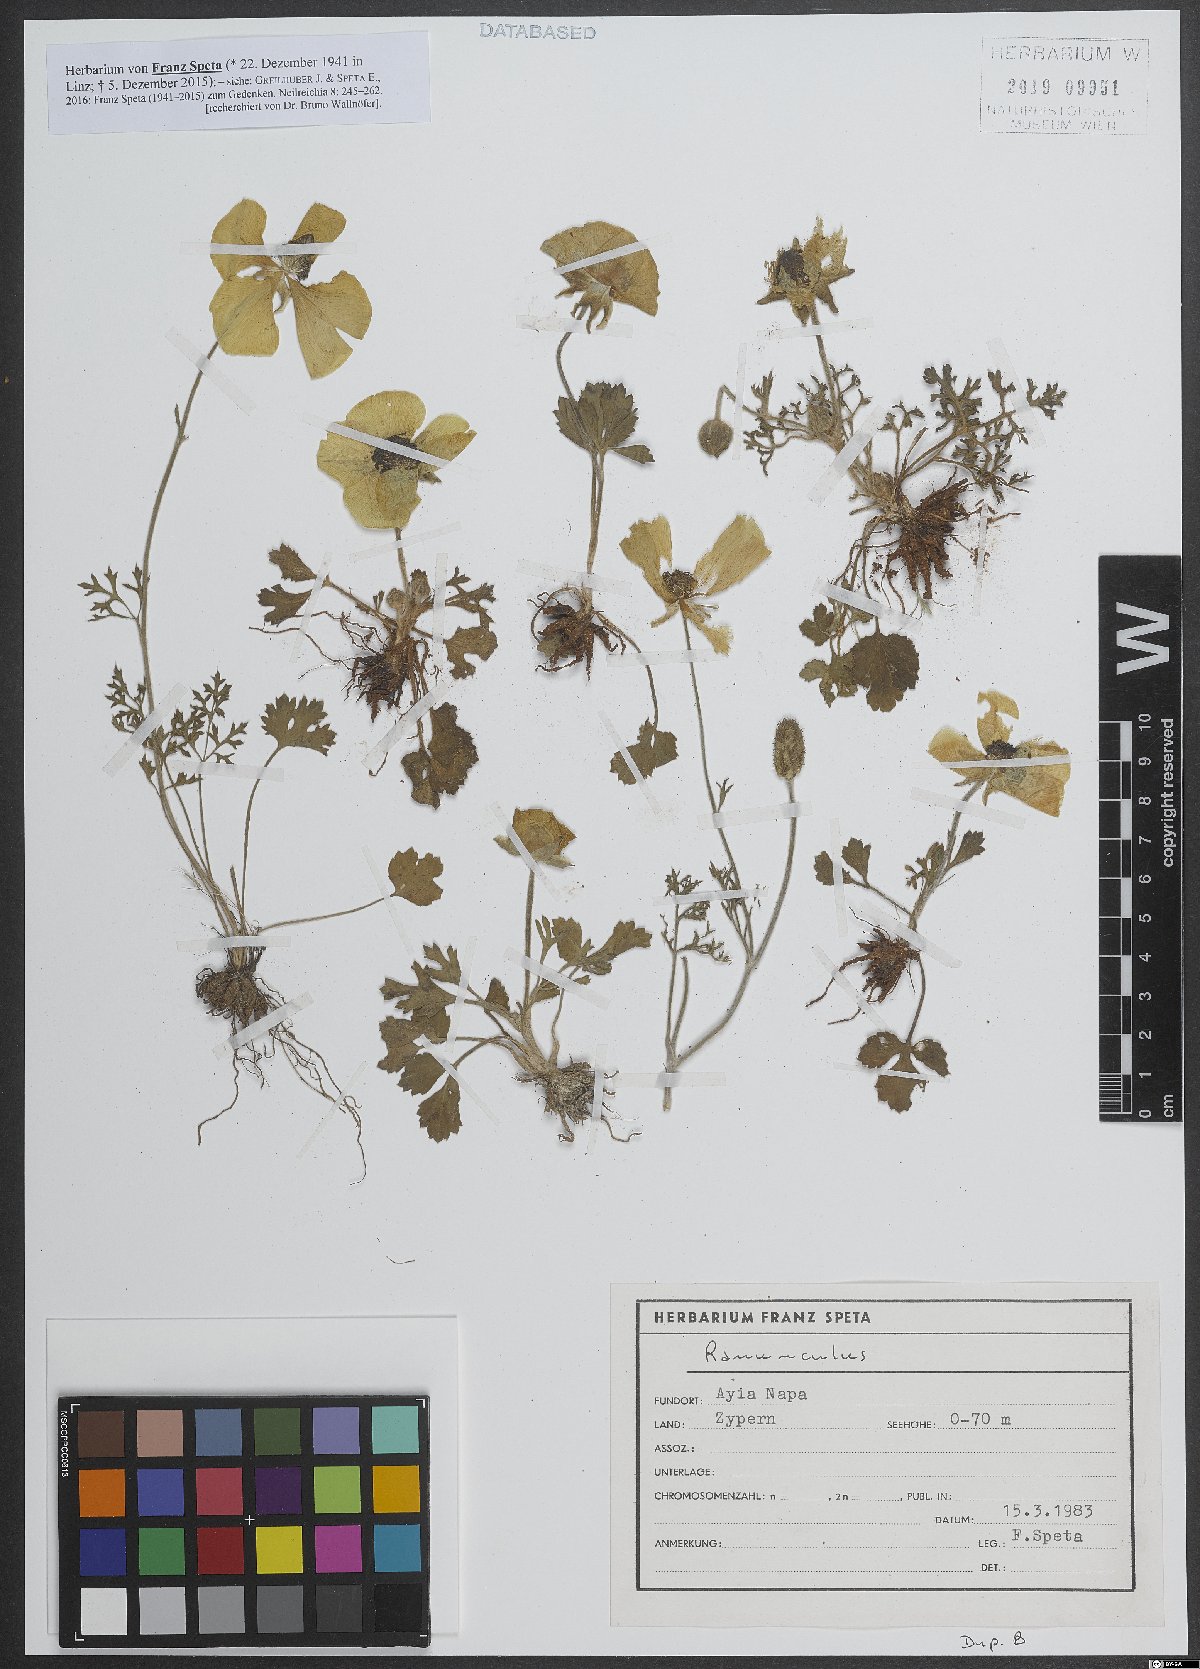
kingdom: Plantae
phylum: Tracheophyta
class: Magnoliopsida
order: Ranunculales
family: Ranunculaceae
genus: Ranunculus
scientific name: Ranunculus
